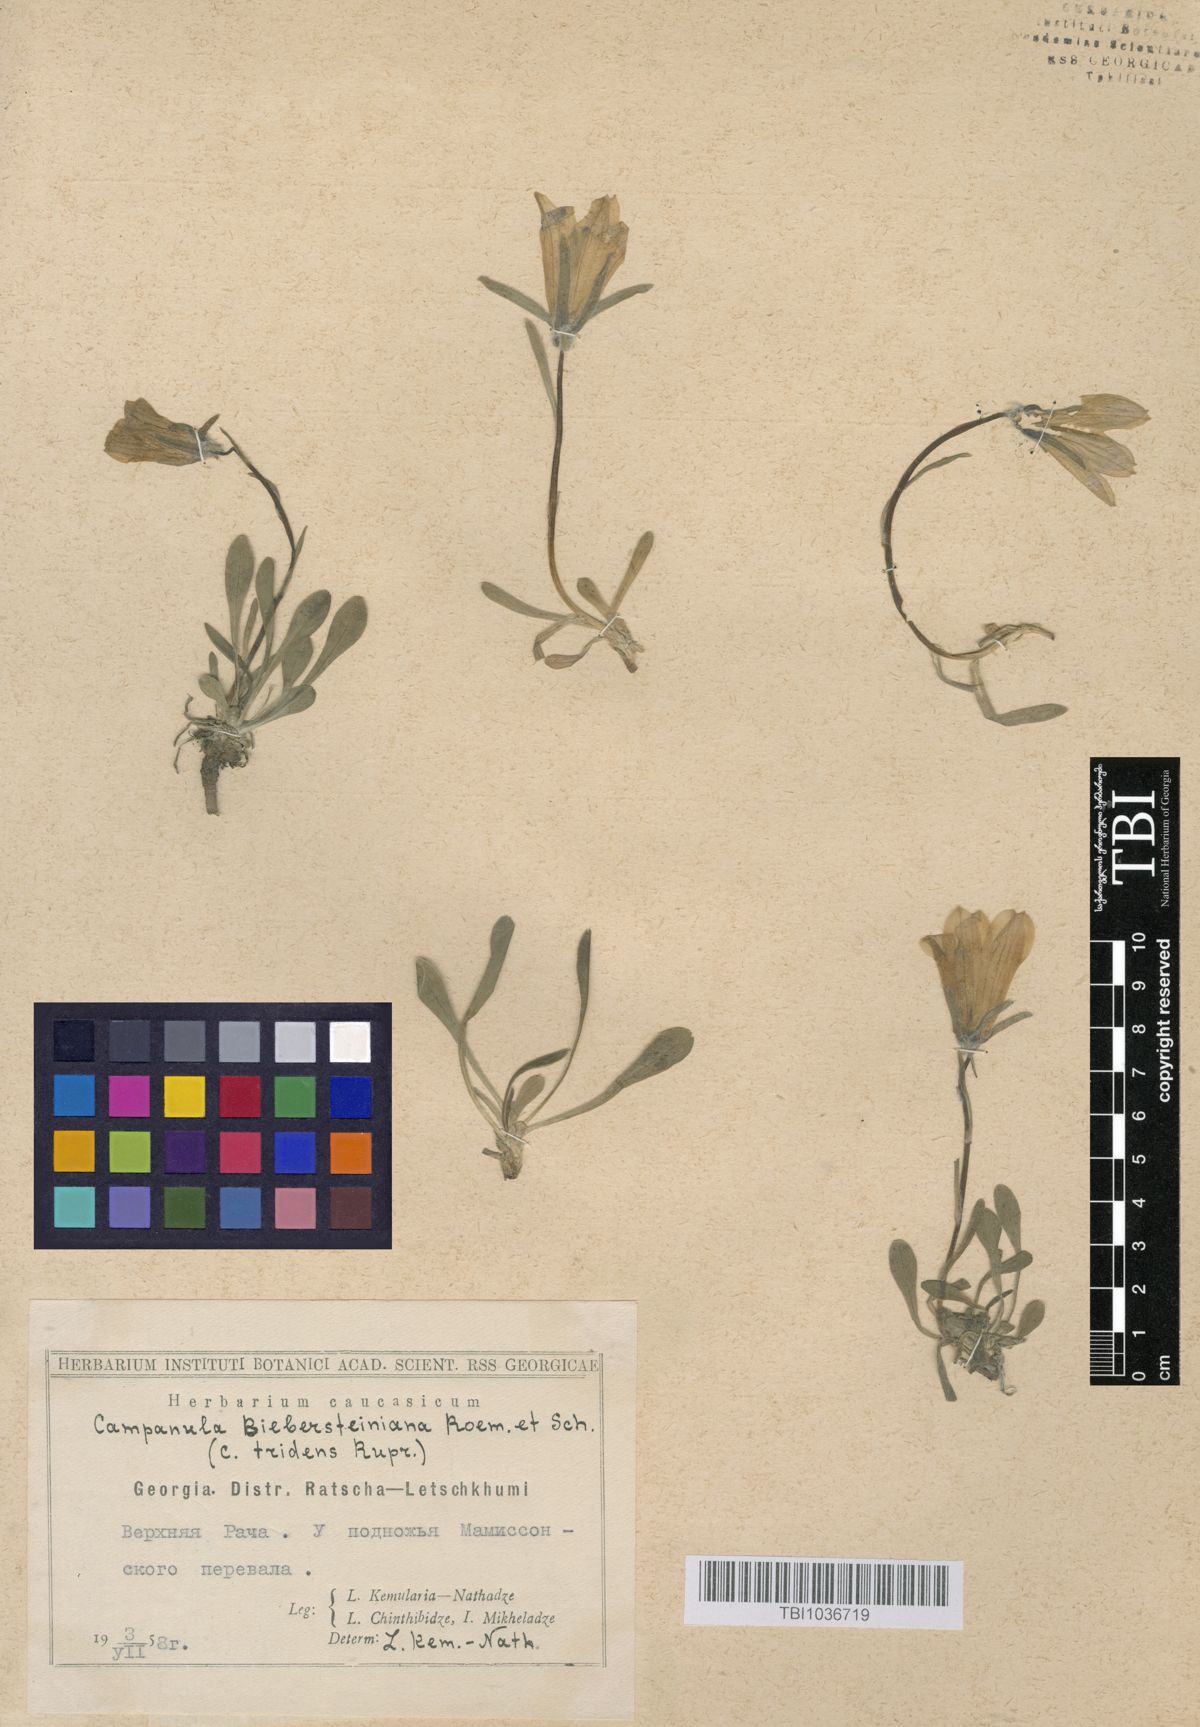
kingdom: Plantae
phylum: Tracheophyta
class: Magnoliopsida
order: Asterales
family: Campanulaceae
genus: Campanula
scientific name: Campanula tridentata
